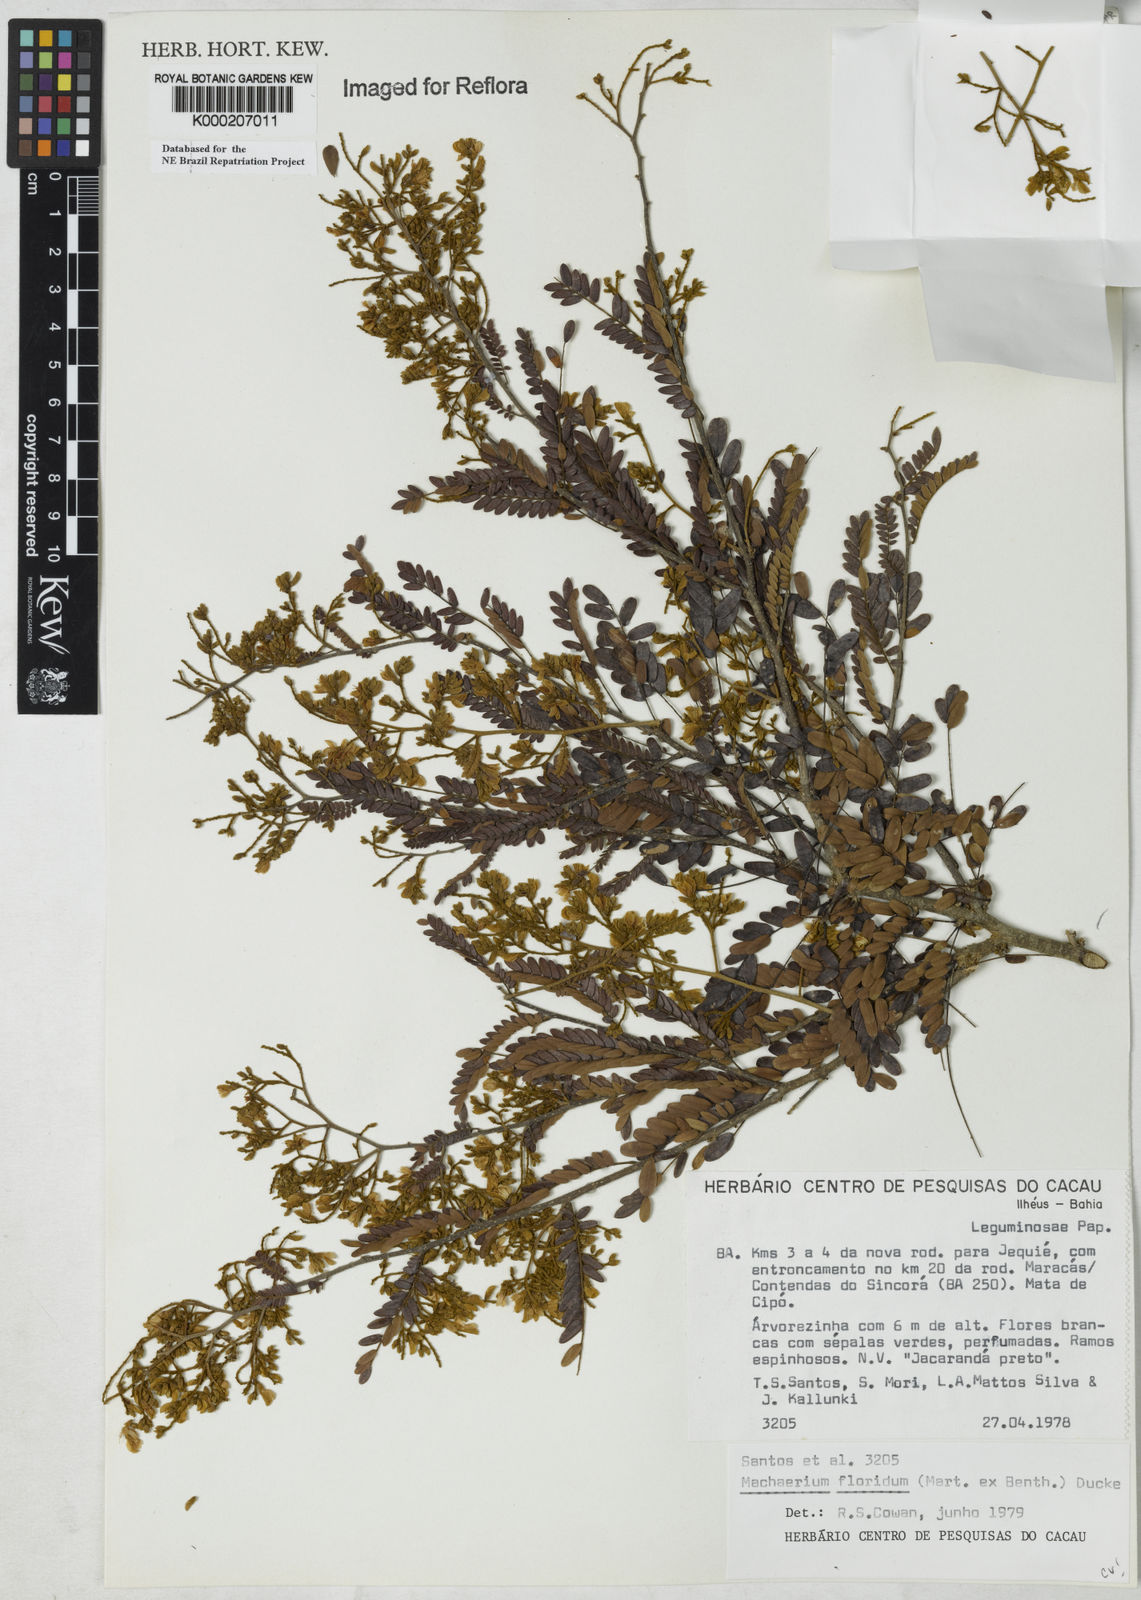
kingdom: Plantae
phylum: Tracheophyta
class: Magnoliopsida
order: Fabales
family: Fabaceae
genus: Machaerium
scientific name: Machaerium floridum
